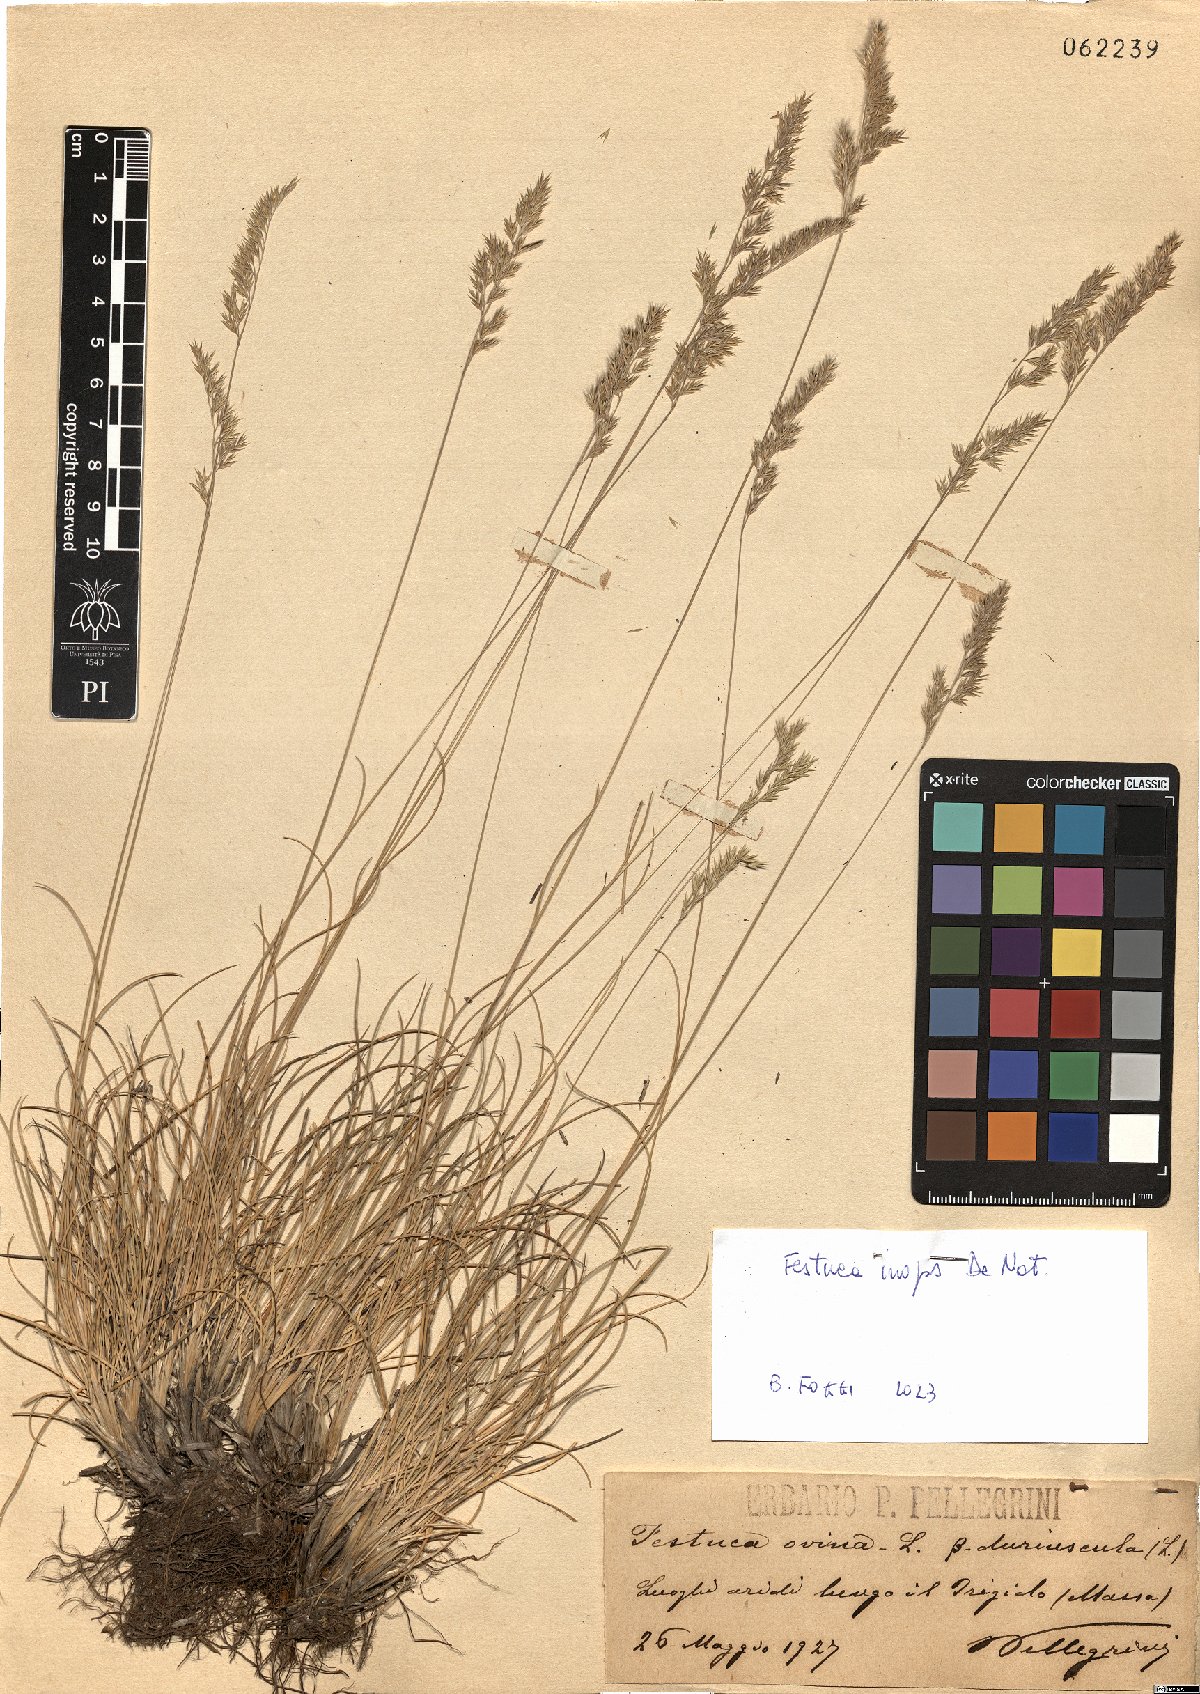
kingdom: Plantae
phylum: Tracheophyta
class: Liliopsida
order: Poales
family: Poaceae
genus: Festuca
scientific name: Festuca inops
